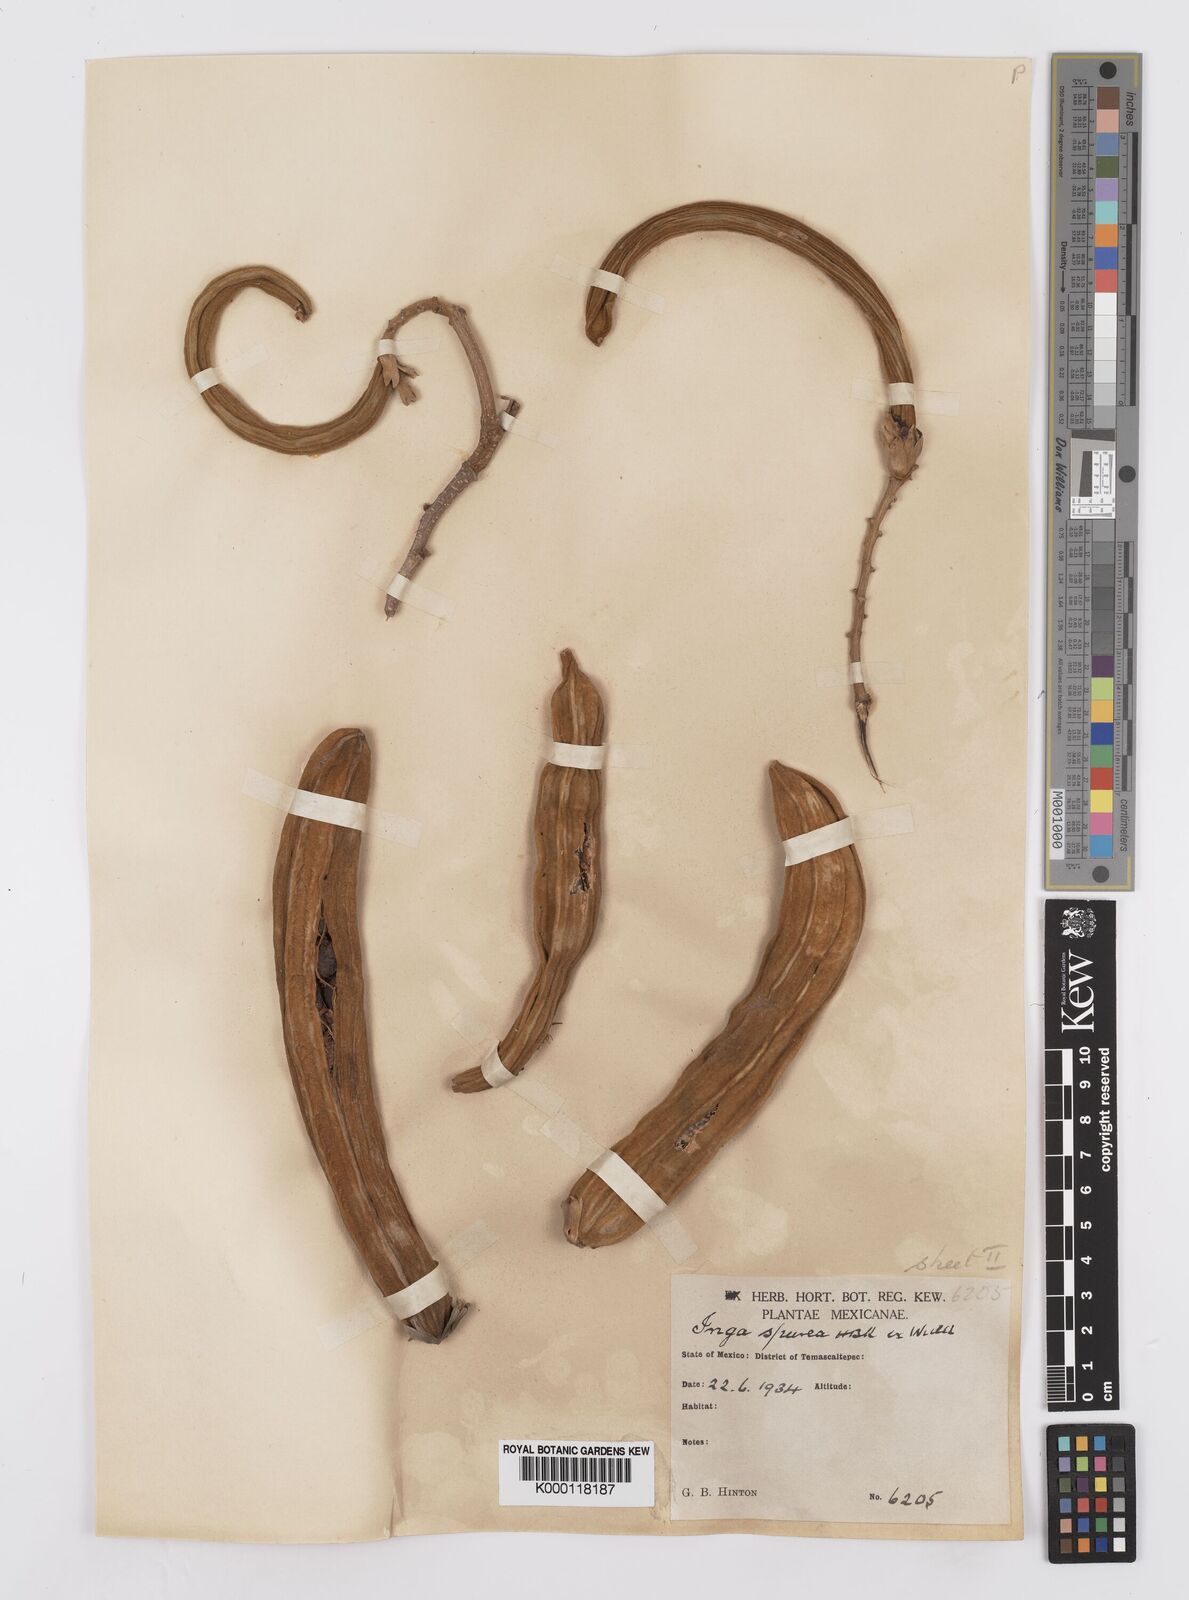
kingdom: Plantae
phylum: Tracheophyta
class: Magnoliopsida
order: Fabales
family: Fabaceae
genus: Inga
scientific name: Inga vera
